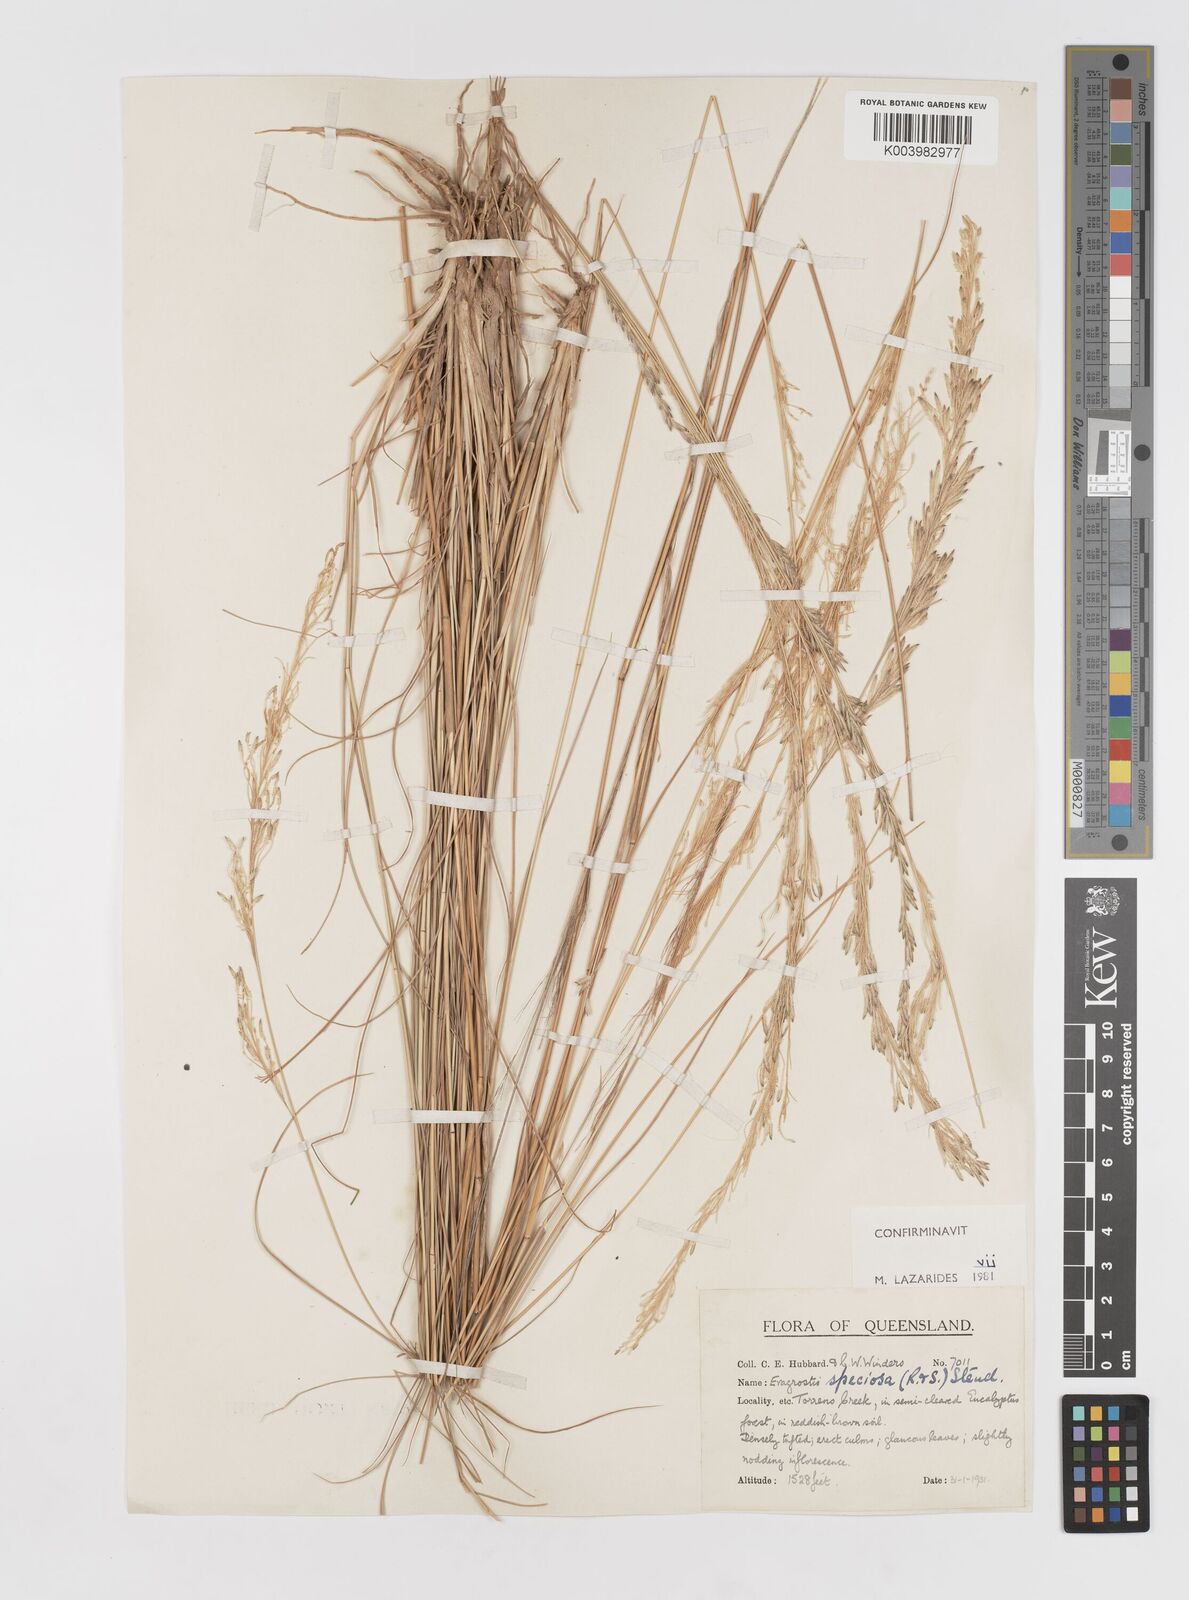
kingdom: Plantae
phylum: Tracheophyta
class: Liliopsida
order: Poales
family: Poaceae
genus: Eragrostis
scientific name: Eragrostis speciosa
